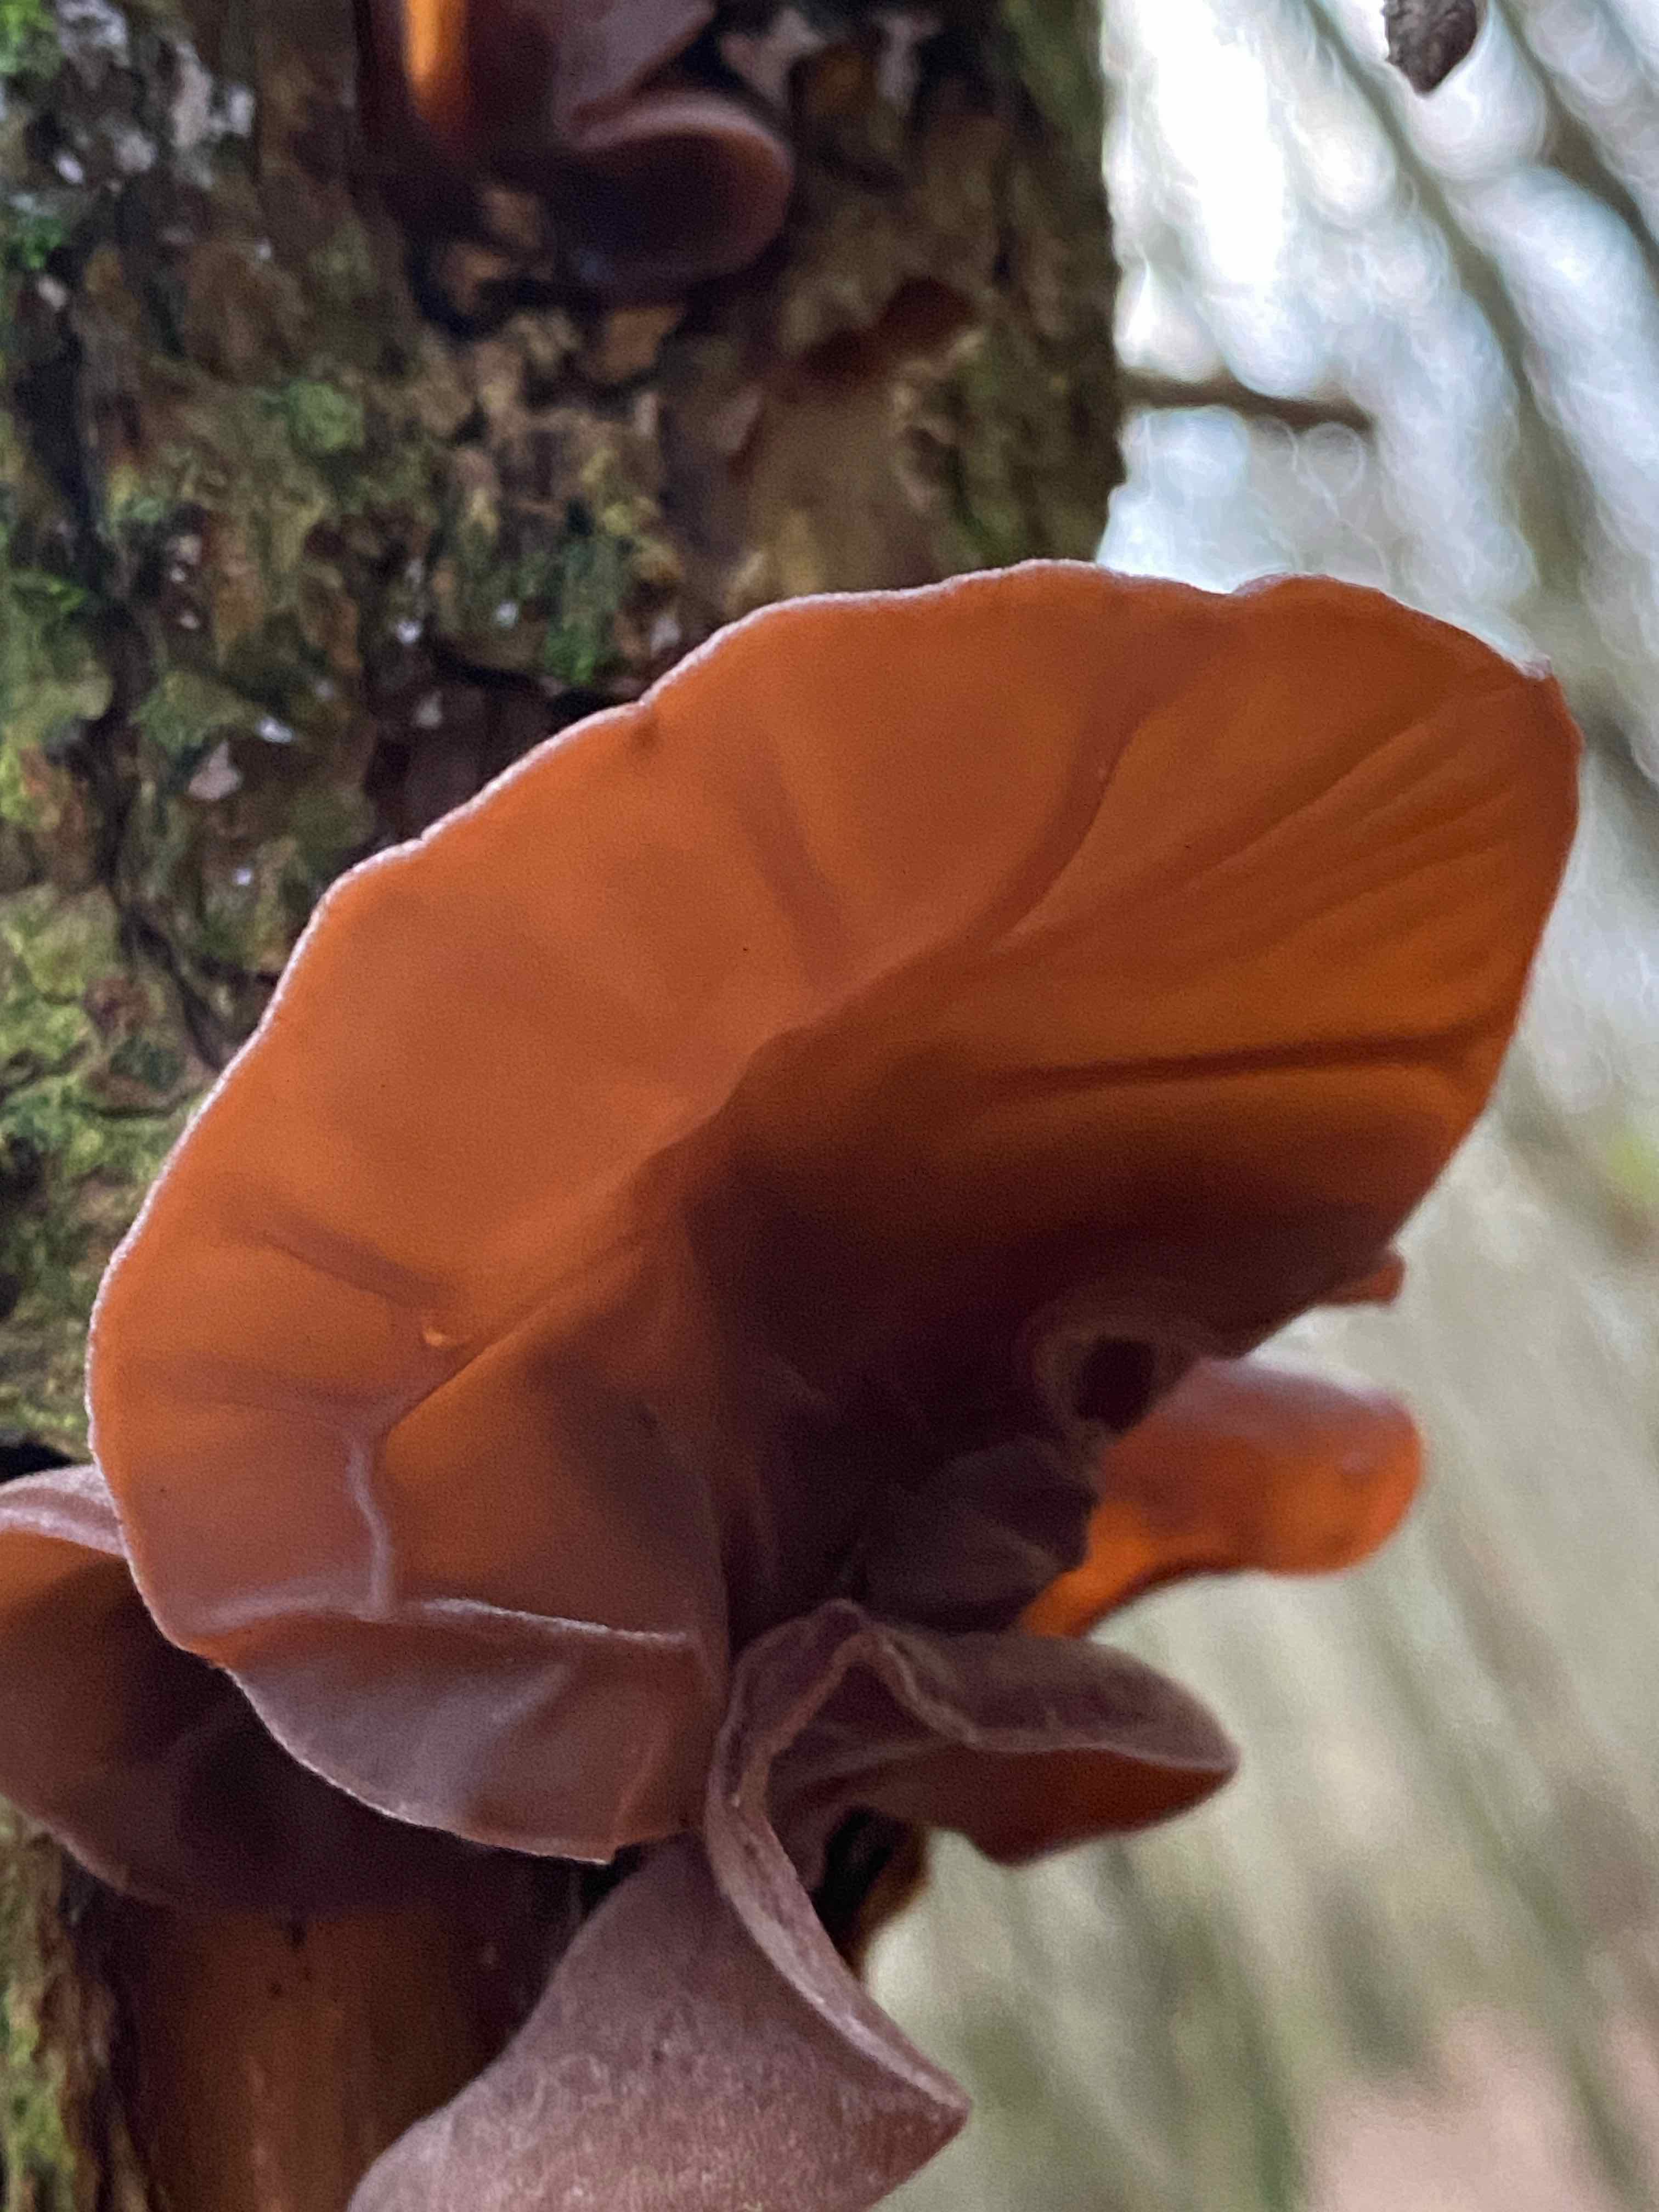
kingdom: Fungi
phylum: Basidiomycota
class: Agaricomycetes
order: Auriculariales
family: Auriculariaceae
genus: Auricularia
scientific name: Auricularia auricula-judae
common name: almindelig judasøre
